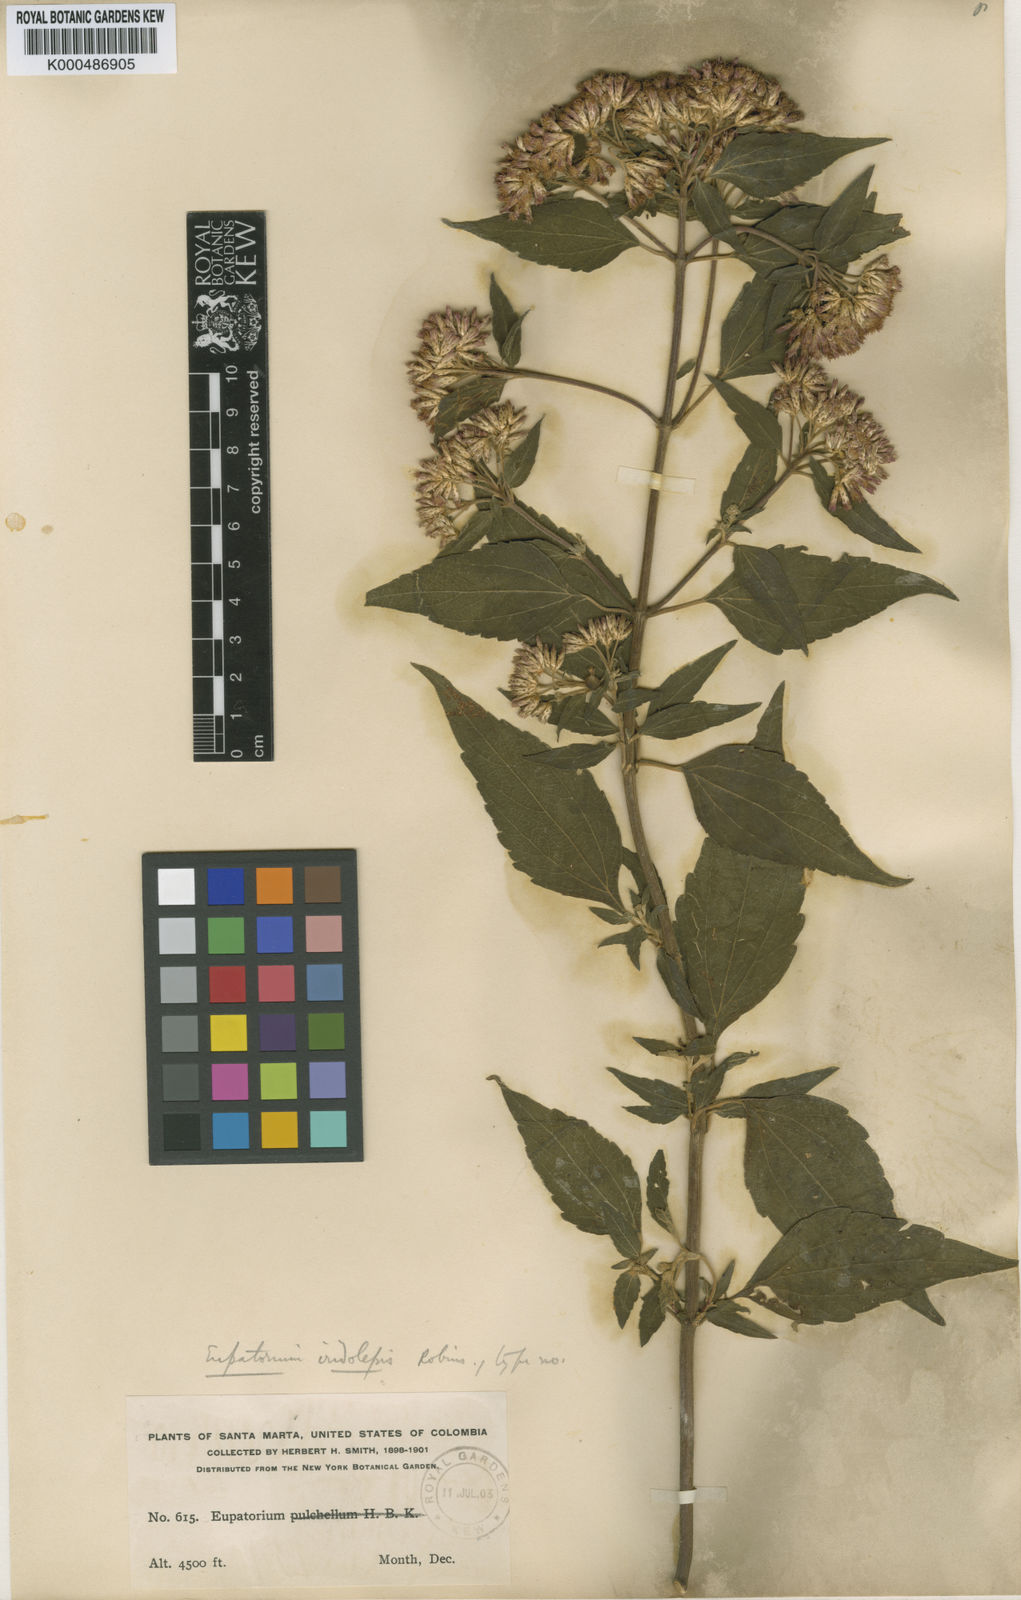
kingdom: Plantae
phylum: Tracheophyta
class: Magnoliopsida
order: Asterales
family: Asteraceae
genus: Chromolaena
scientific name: Chromolaena iridolepis
